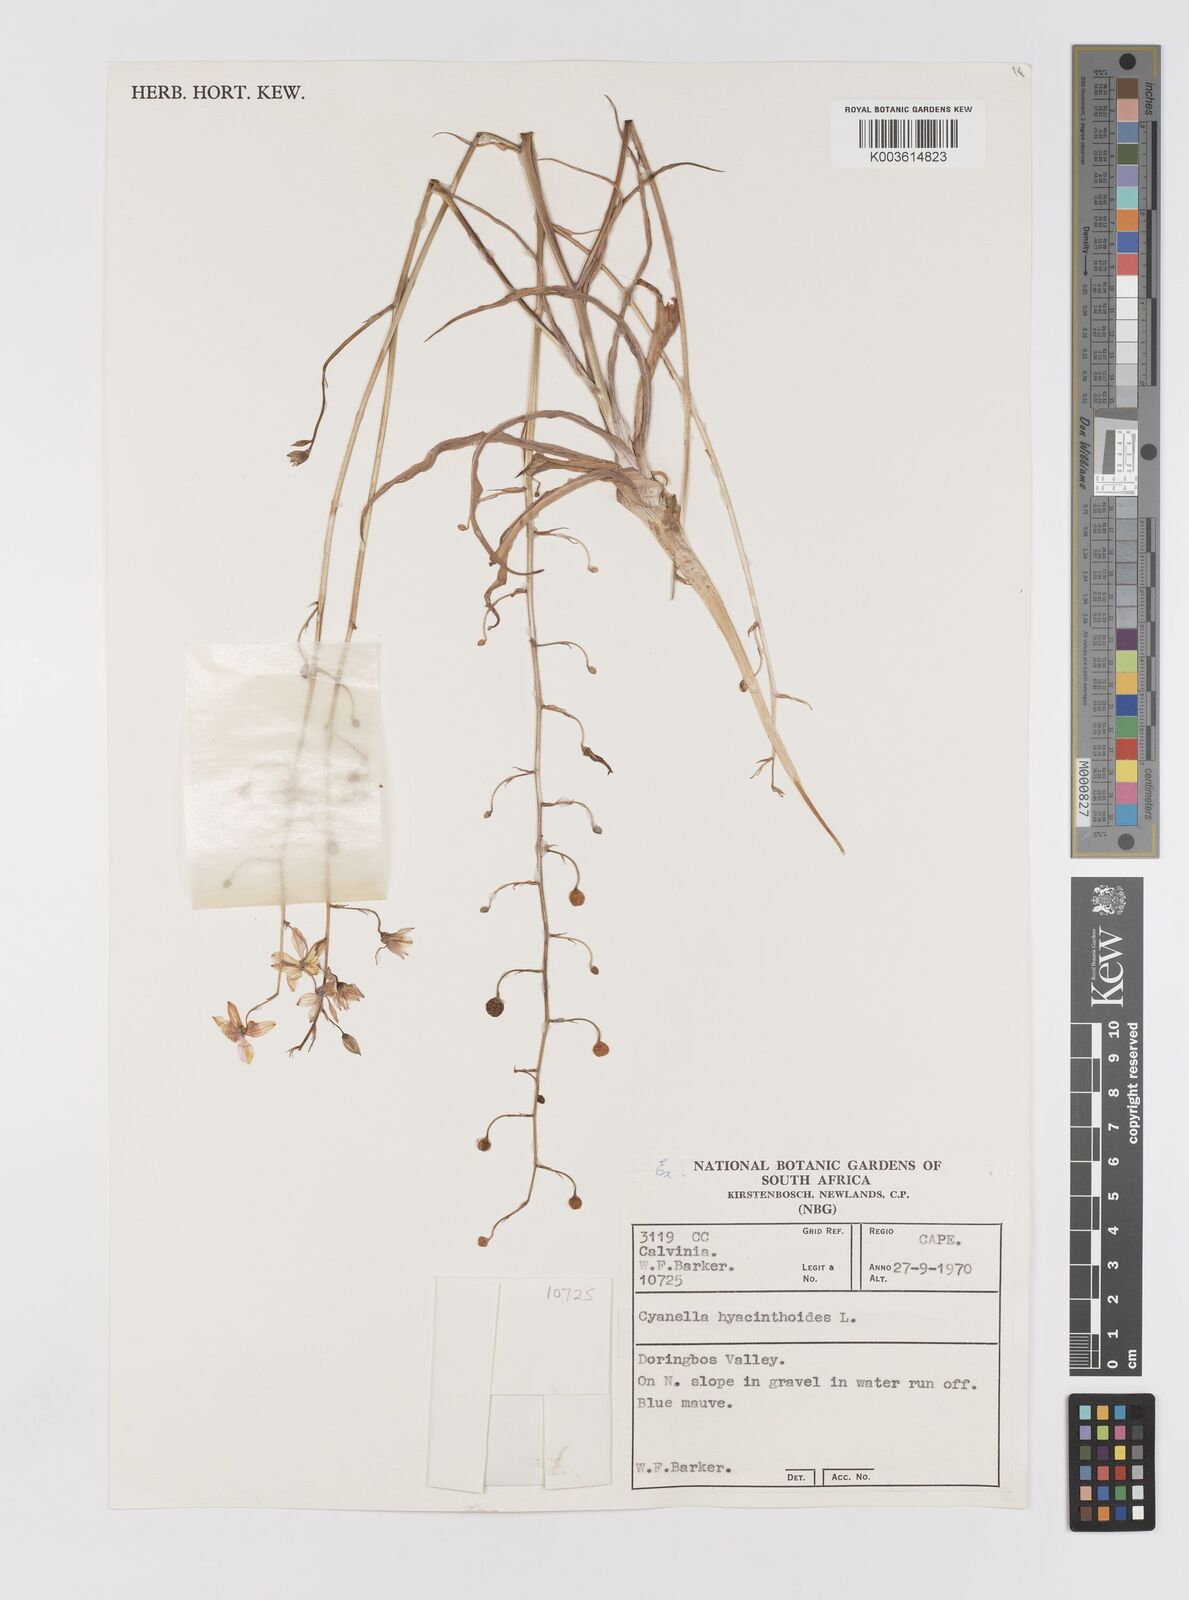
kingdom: Plantae
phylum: Tracheophyta
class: Liliopsida
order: Asparagales
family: Tecophilaeaceae
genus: Cyanella
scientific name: Cyanella hyacinthoides
